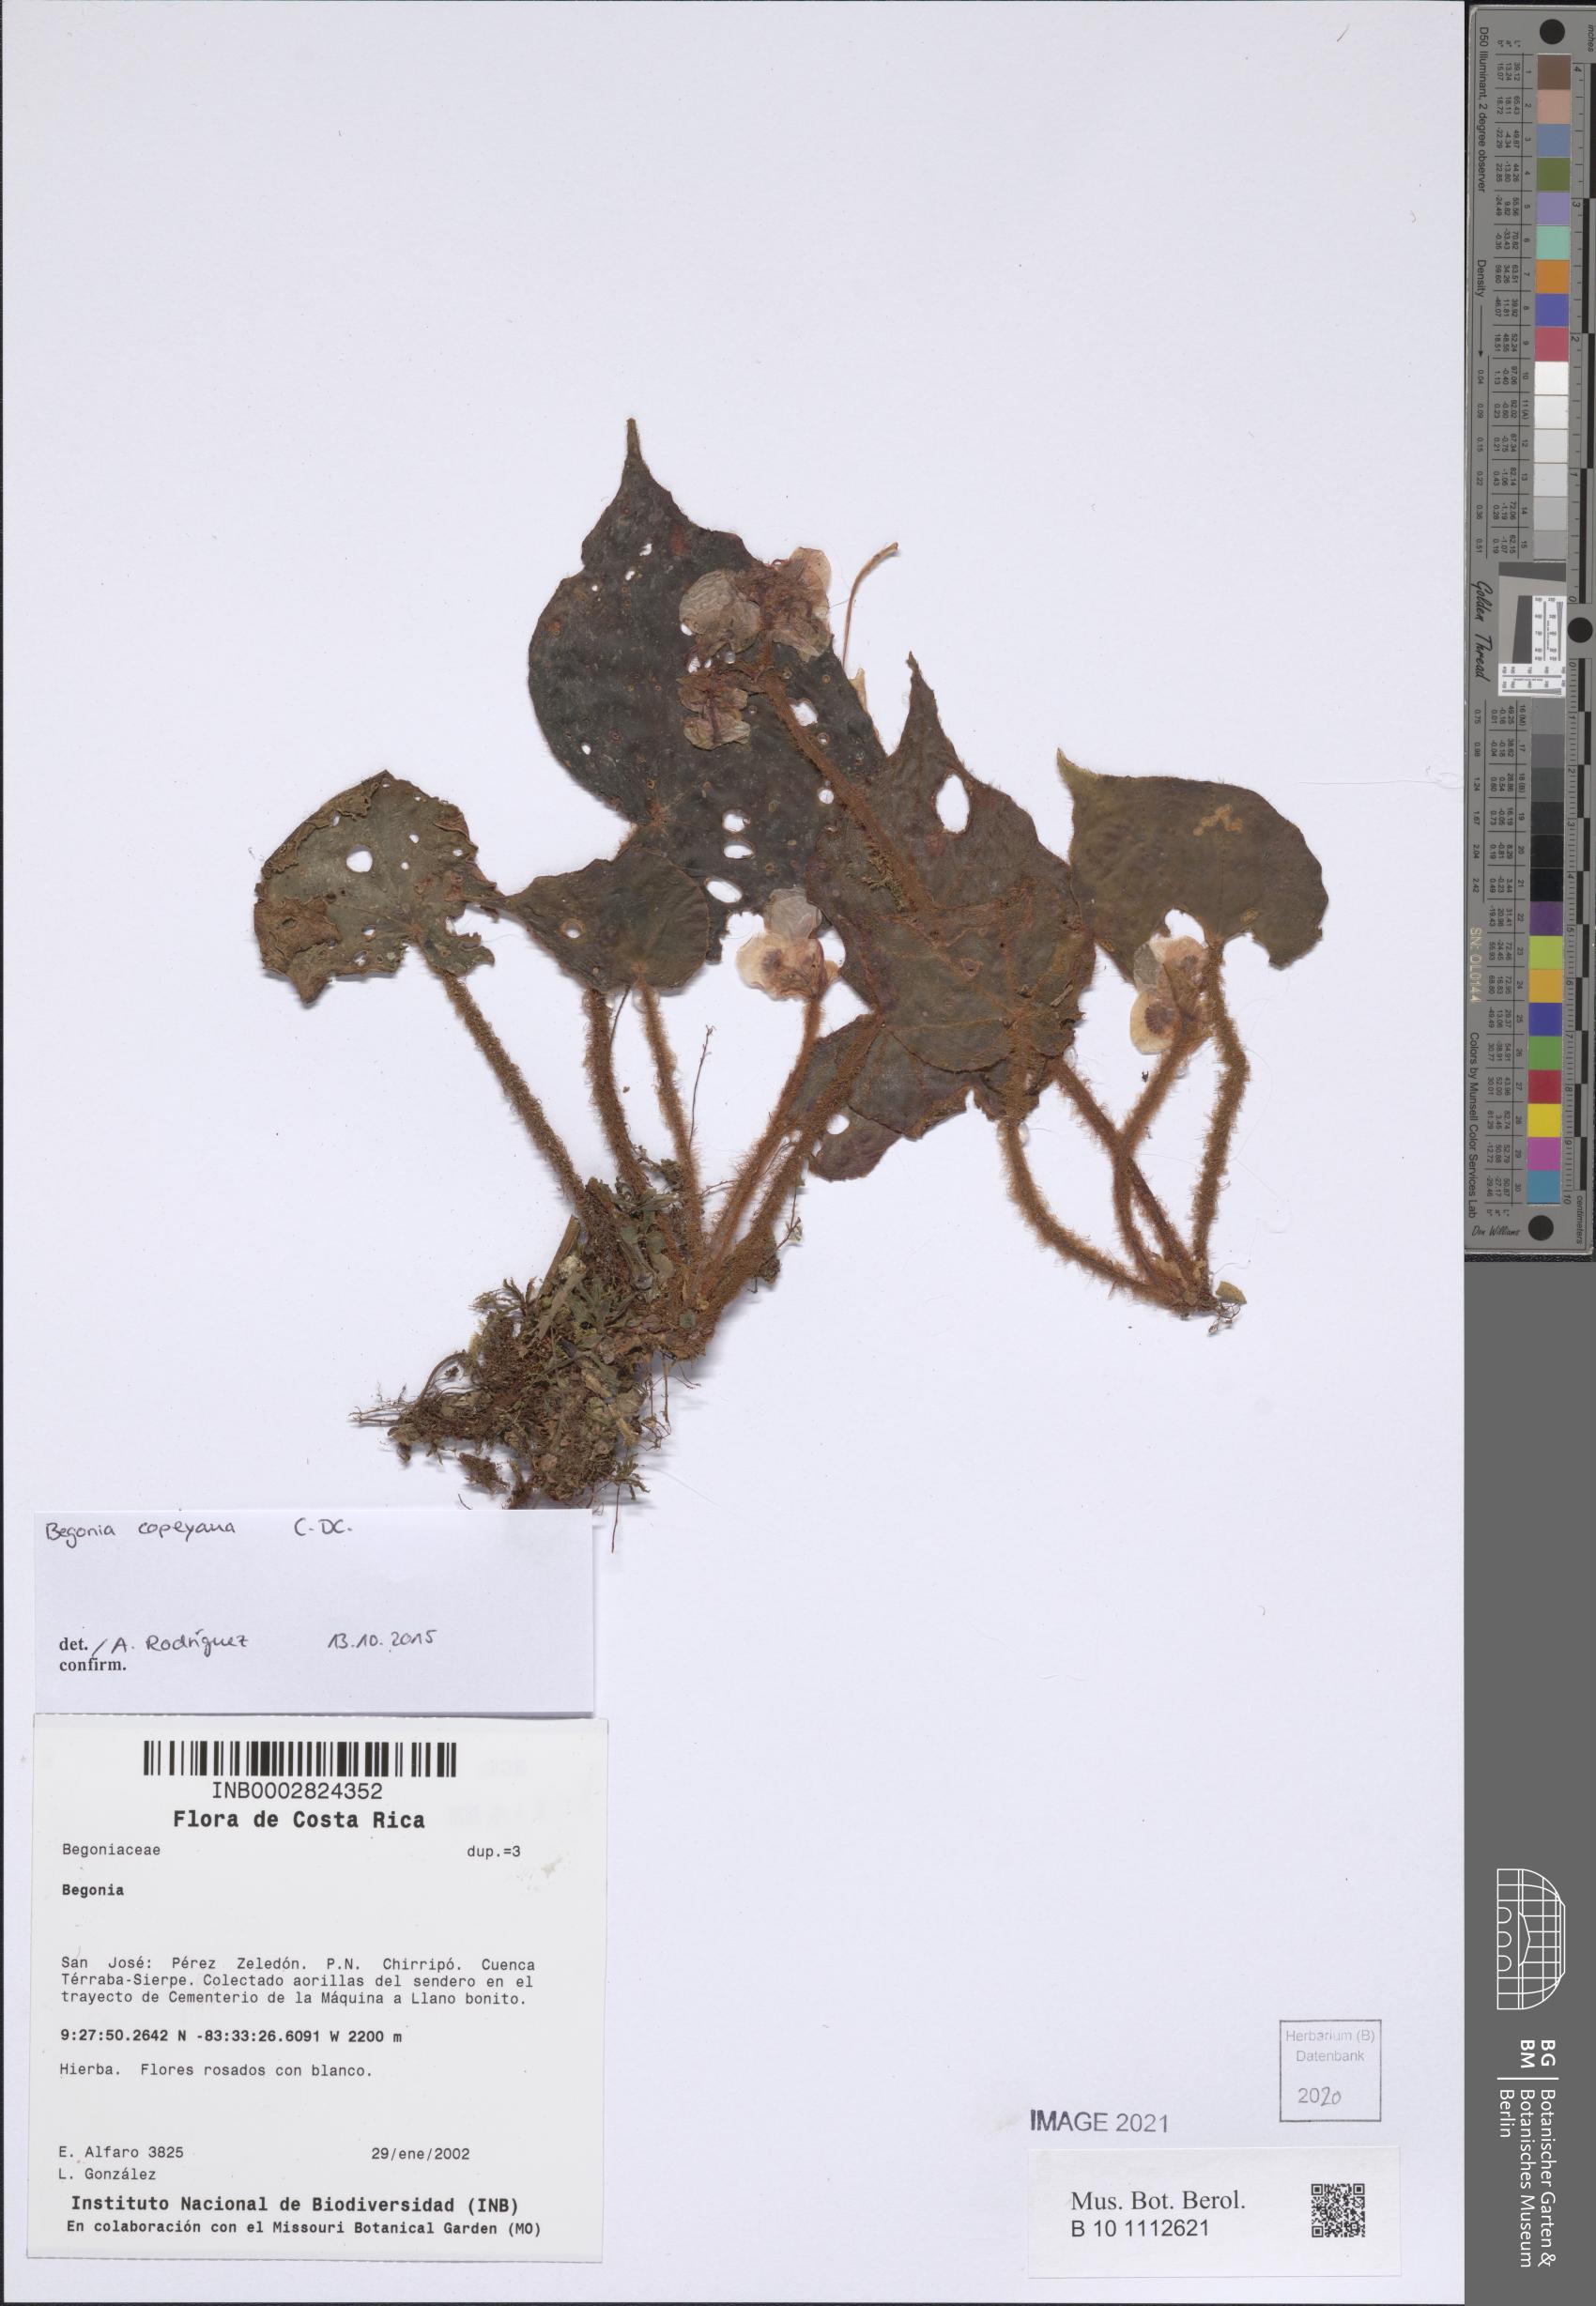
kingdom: Plantae
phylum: Tracheophyta
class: Magnoliopsida
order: Cucurbitales
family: Begoniaceae
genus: Begonia
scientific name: Begonia vestita
